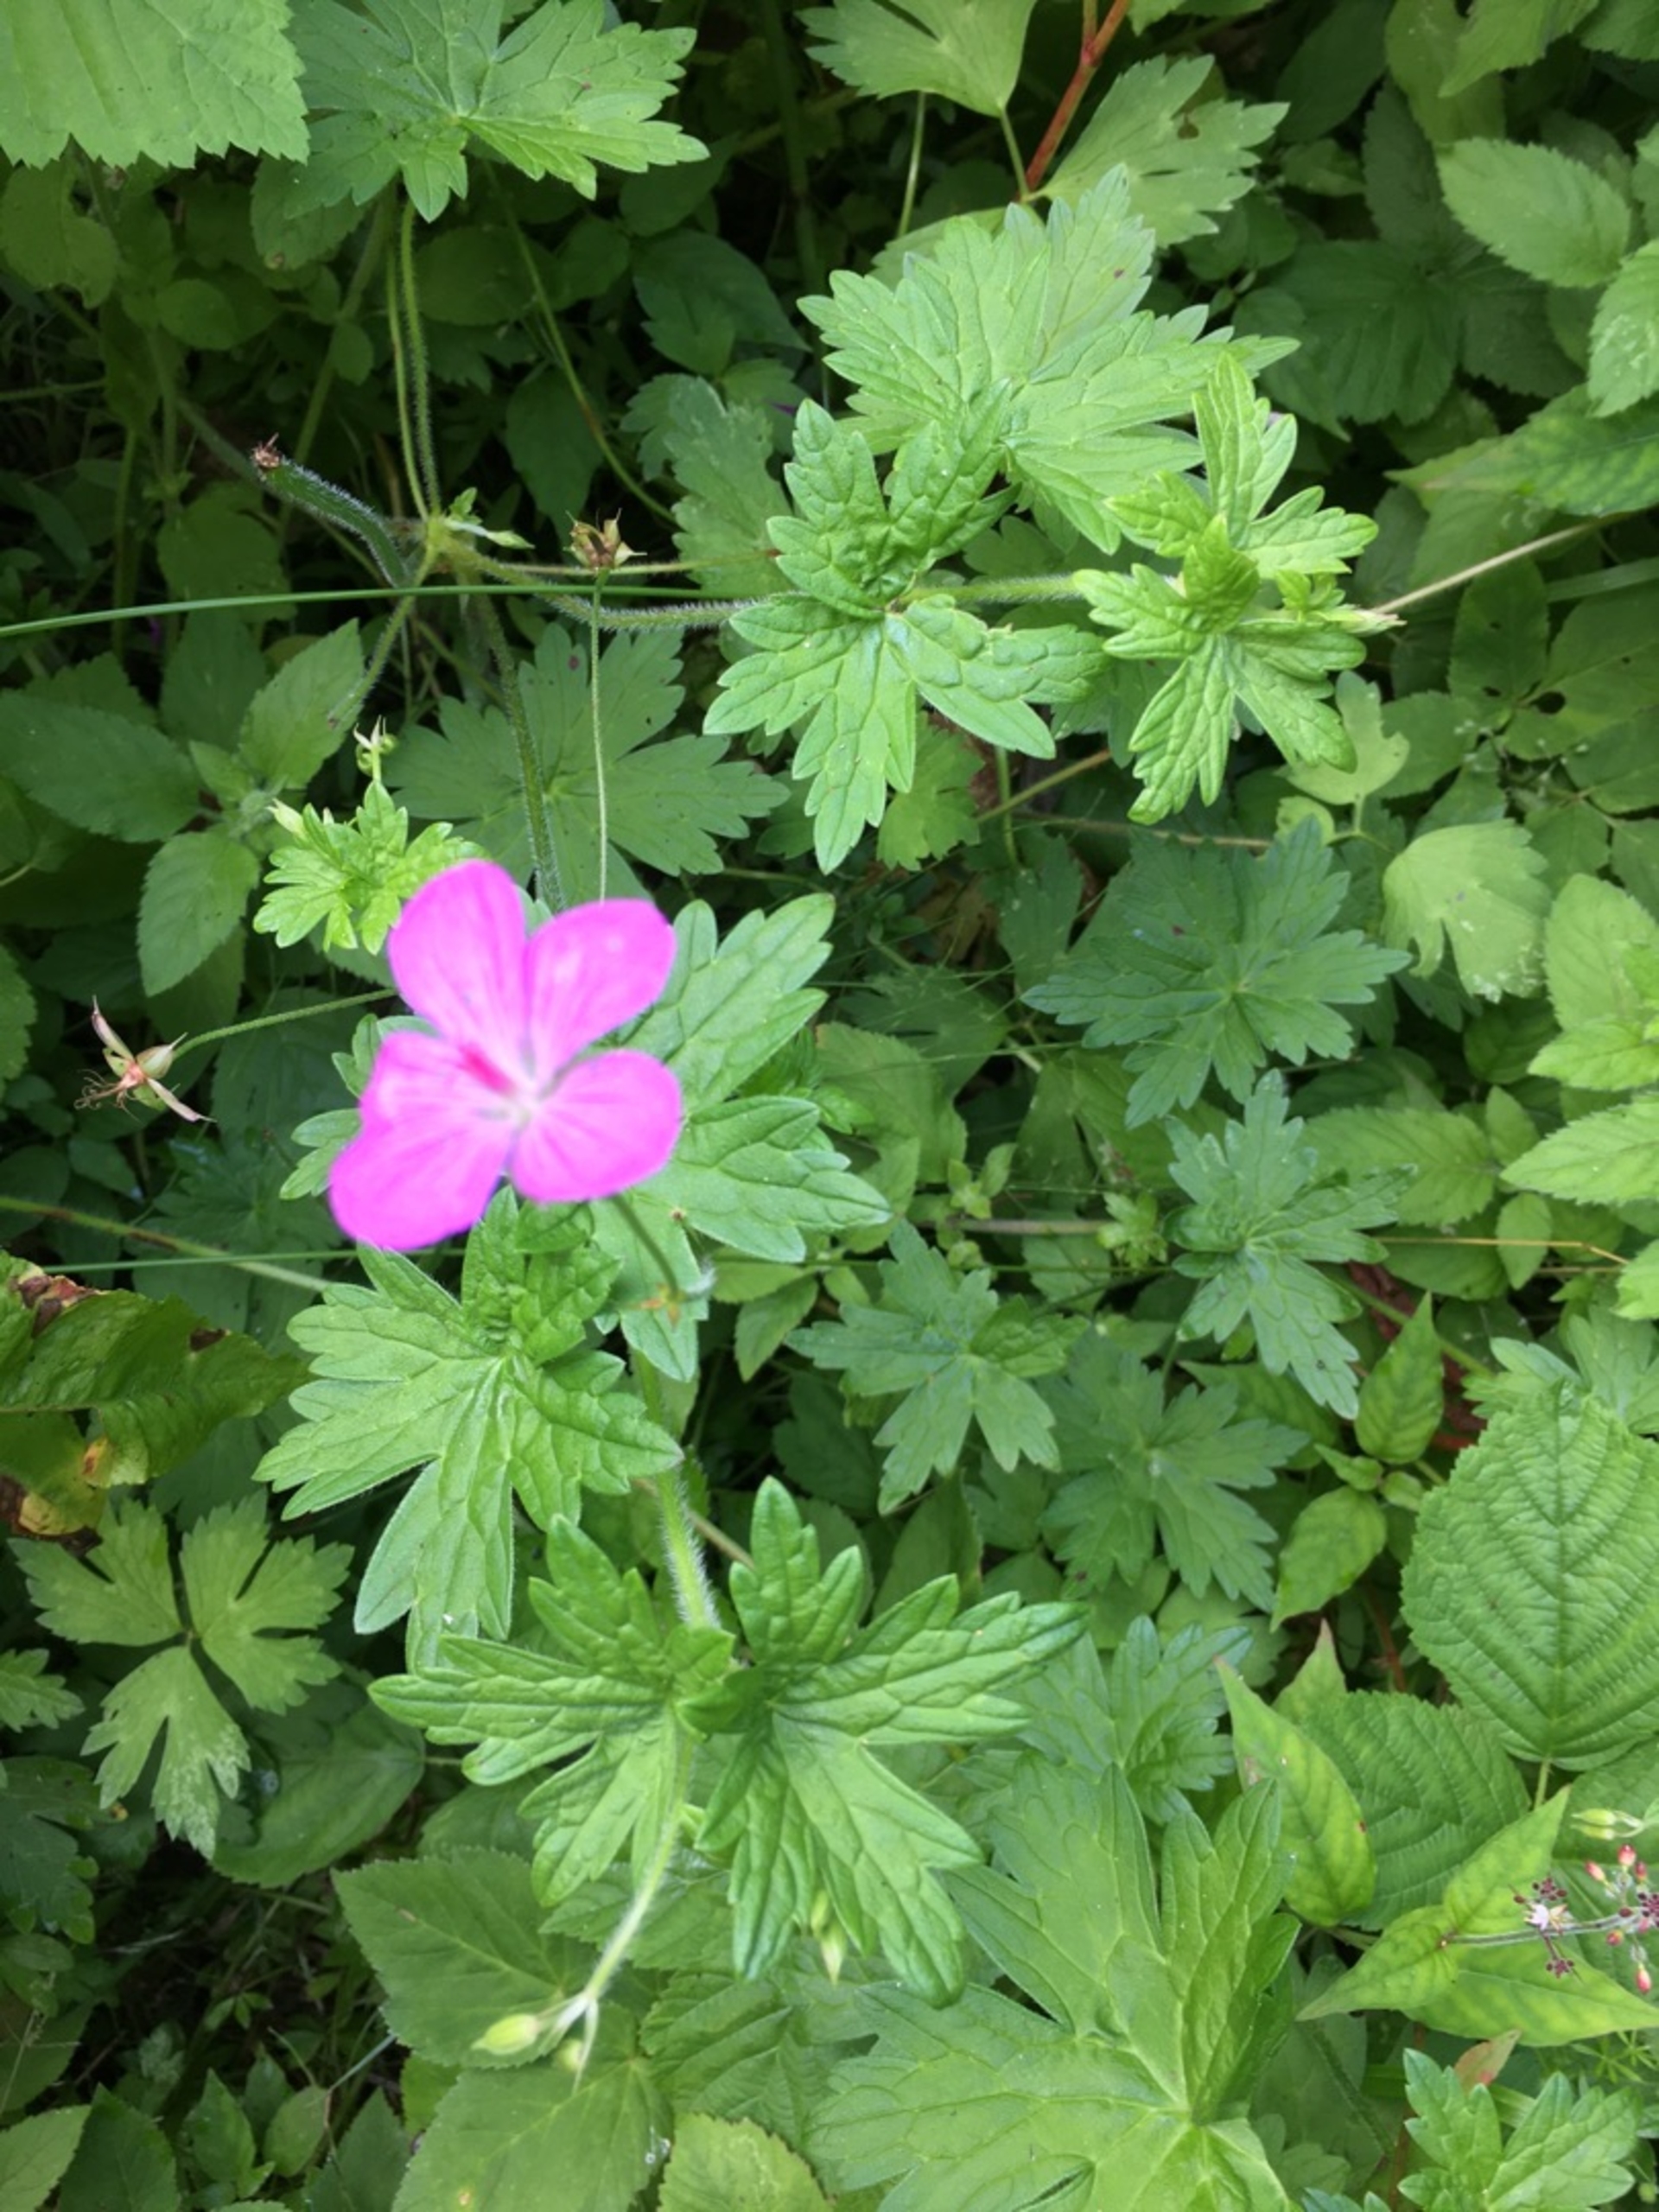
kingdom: Plantae
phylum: Tracheophyta
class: Magnoliopsida
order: Geraniales
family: Geraniaceae
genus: Geranium
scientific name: Geranium palustre
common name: Kær-storkenæb
